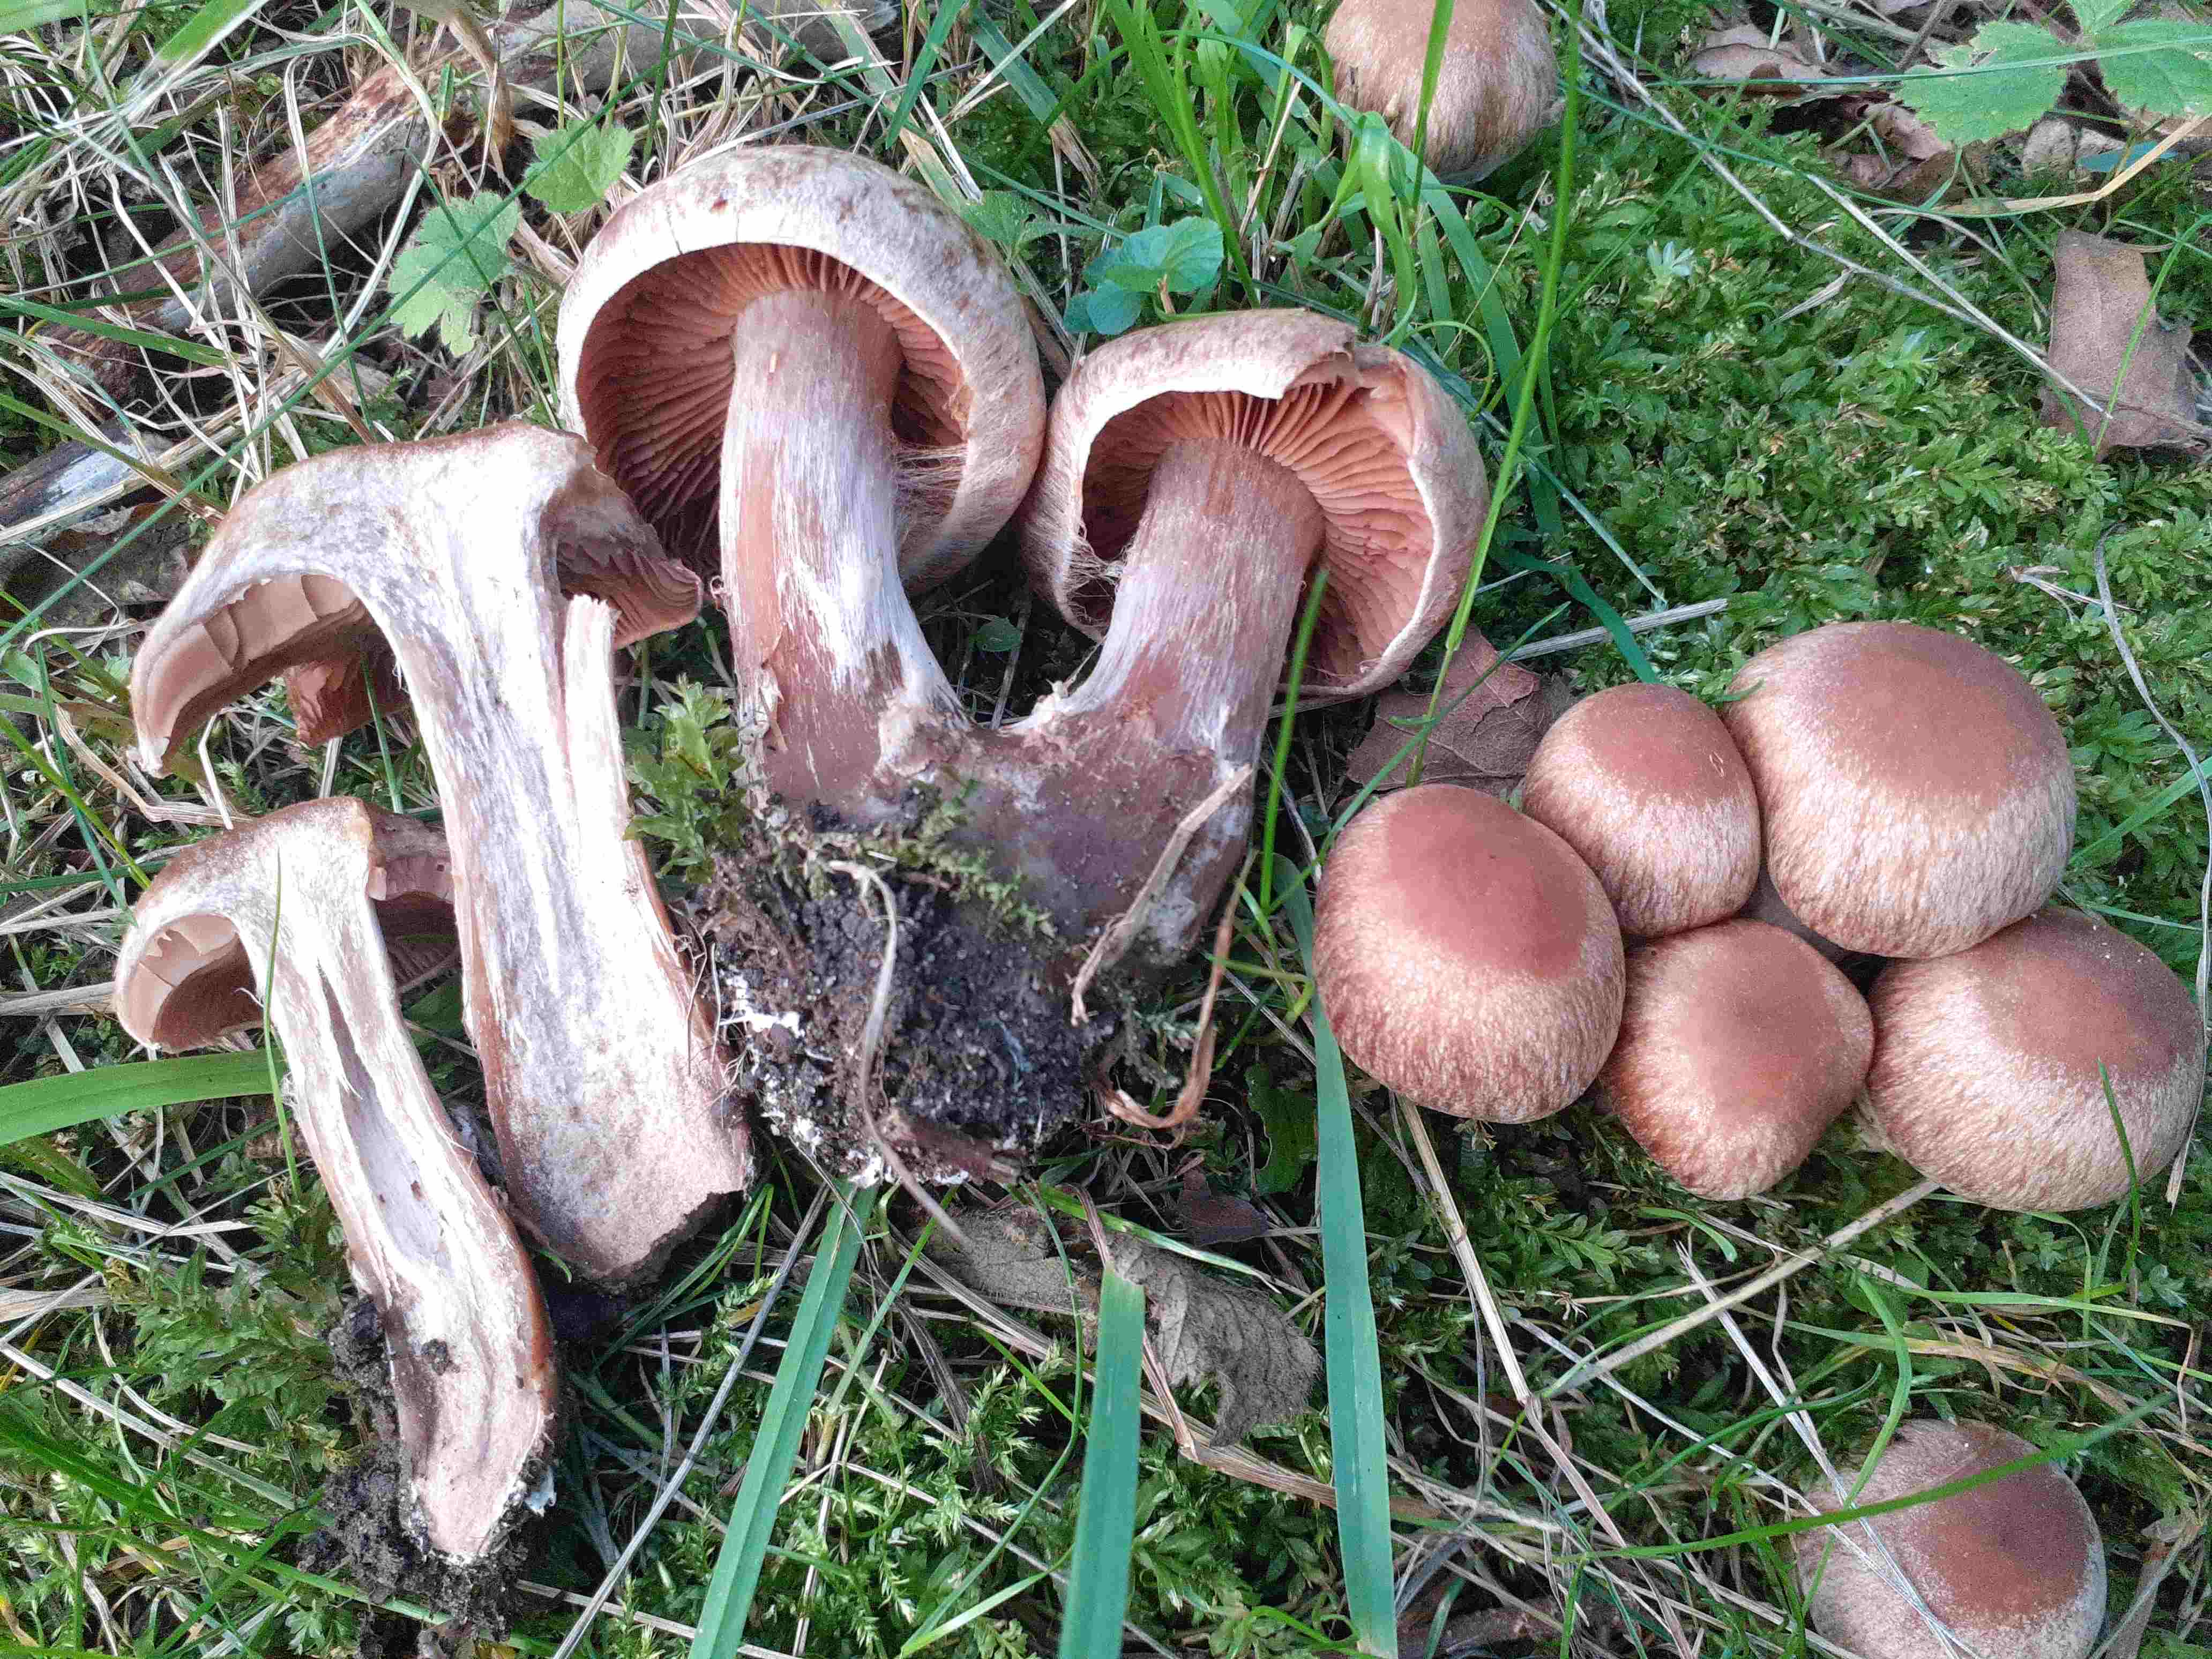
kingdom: Fungi
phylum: Basidiomycota
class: Agaricomycetes
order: Agaricales
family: Cortinariaceae
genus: Cortinarius
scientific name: Cortinarius sordescens
